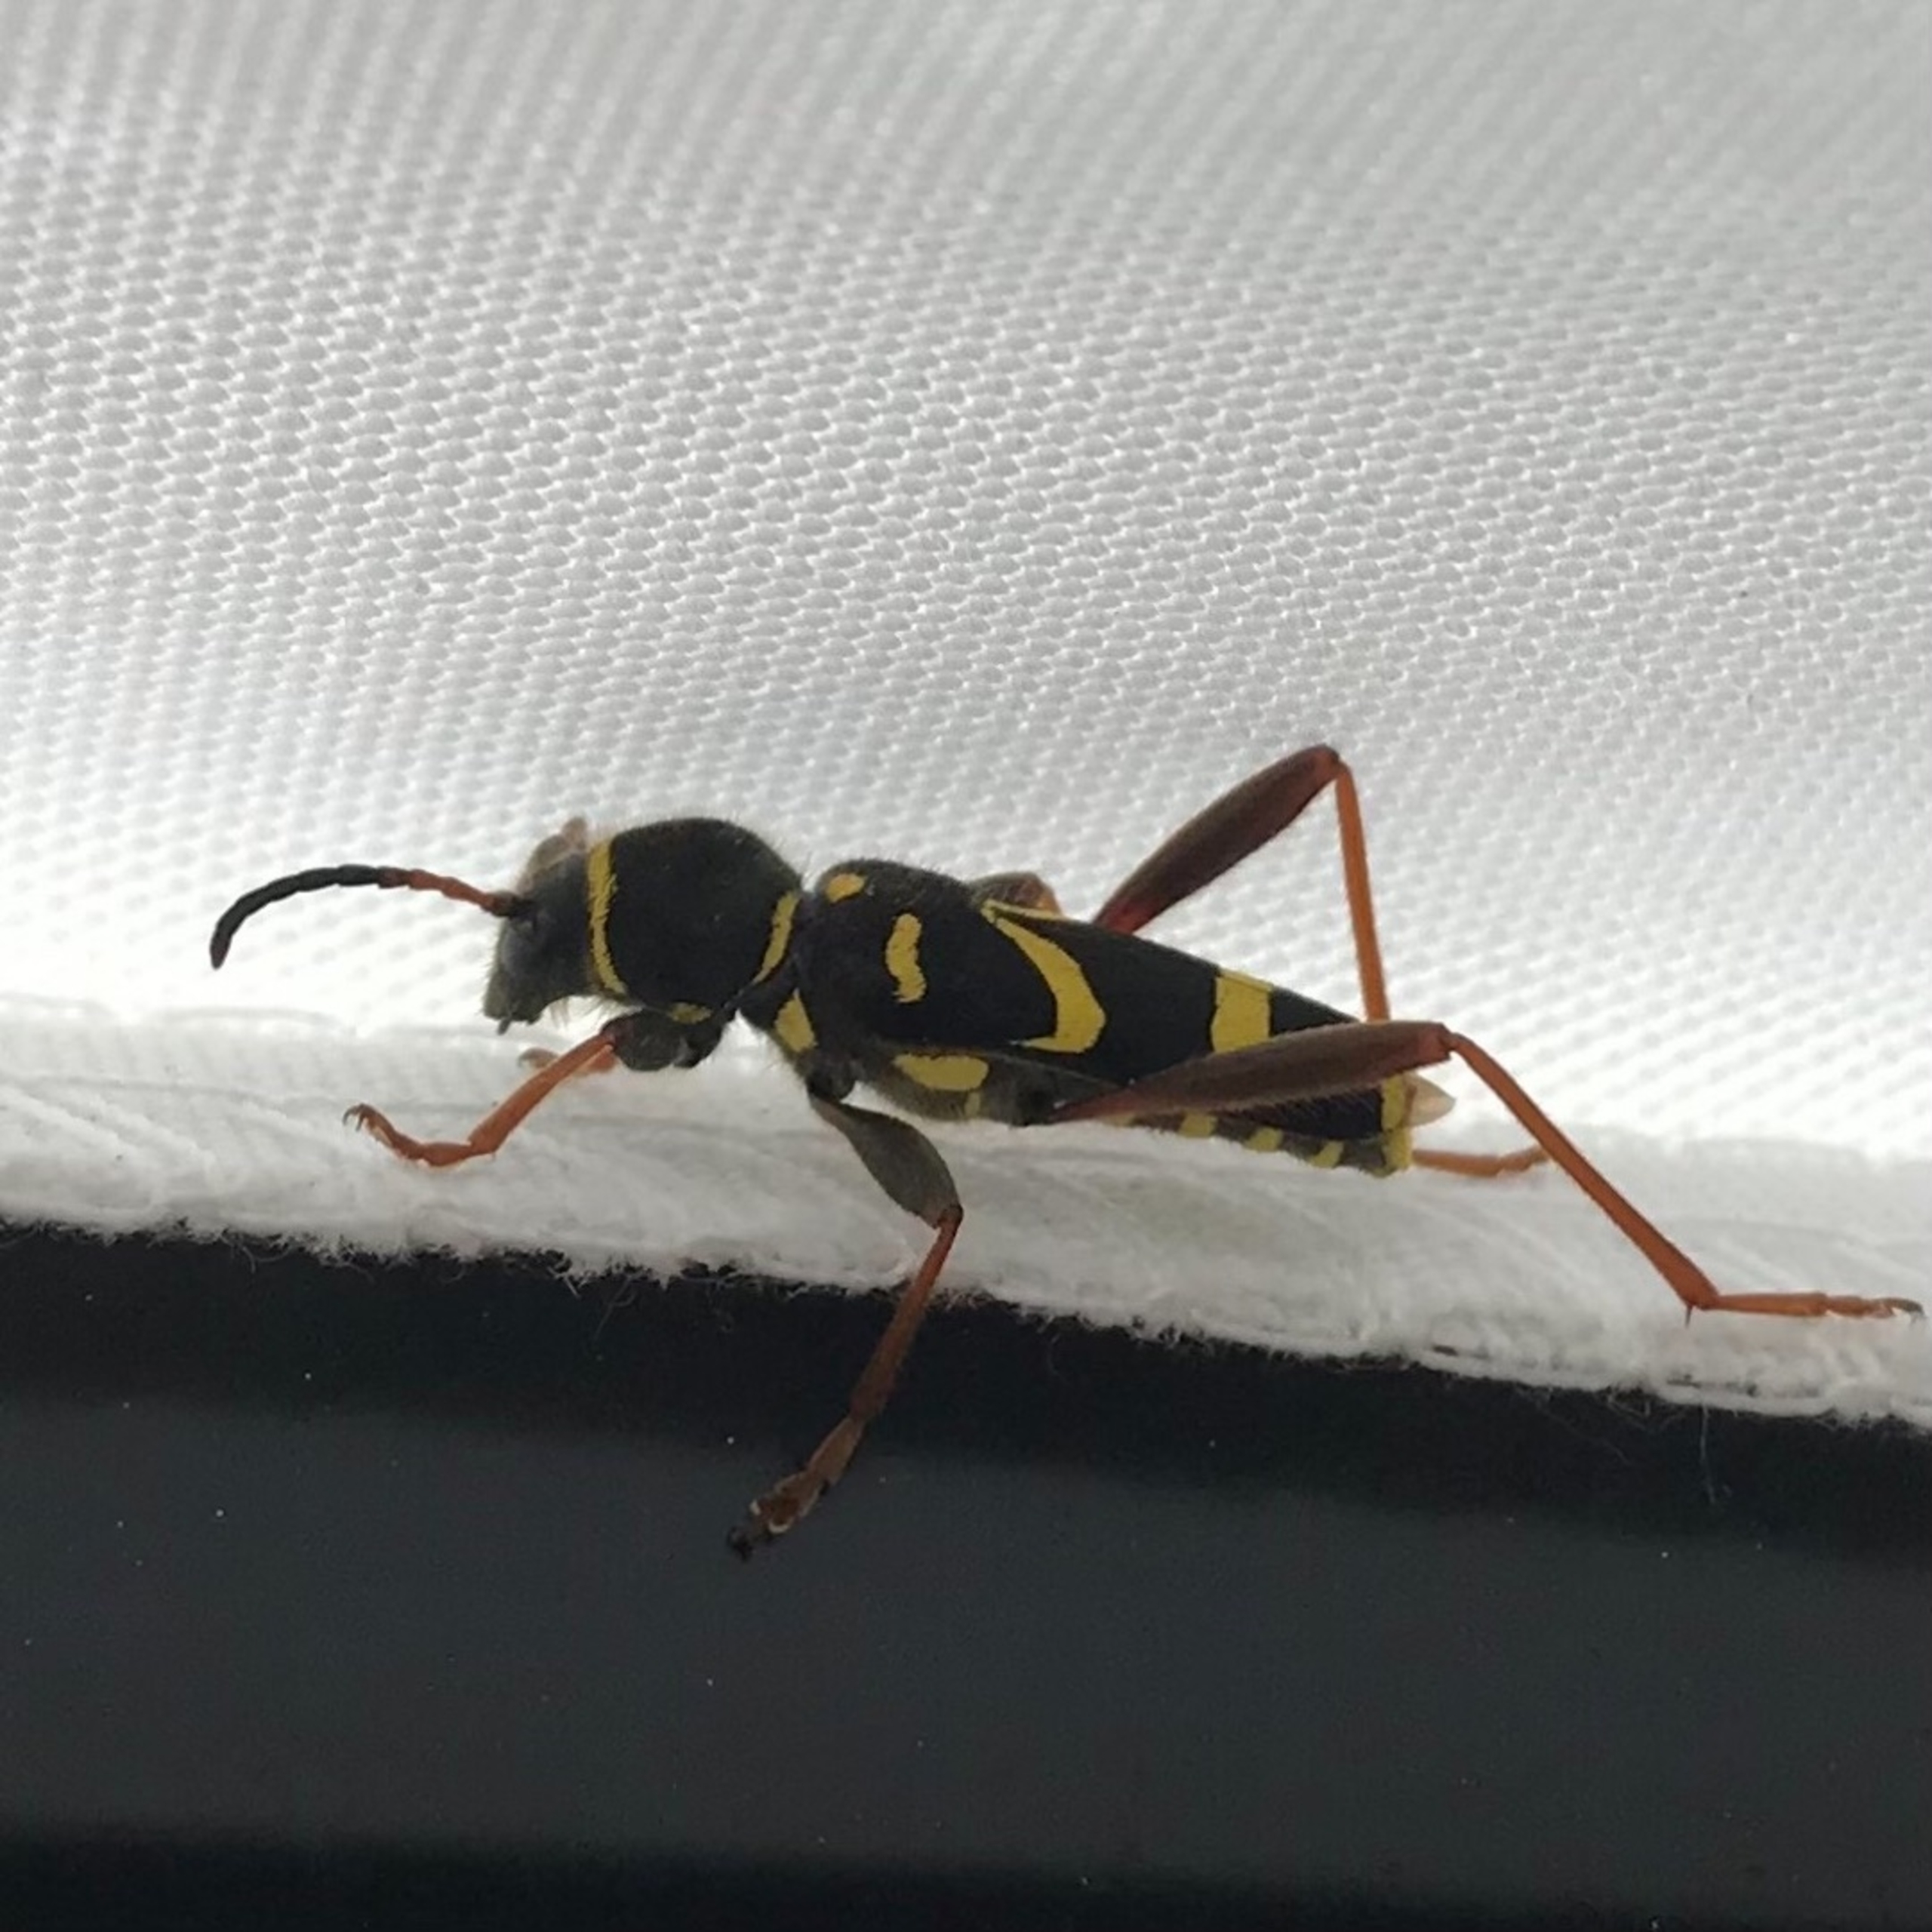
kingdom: Animalia
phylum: Arthropoda
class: Insecta
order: Coleoptera
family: Cerambycidae
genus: Clytus
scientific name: Clytus arietis
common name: Lille hvepsebuk
